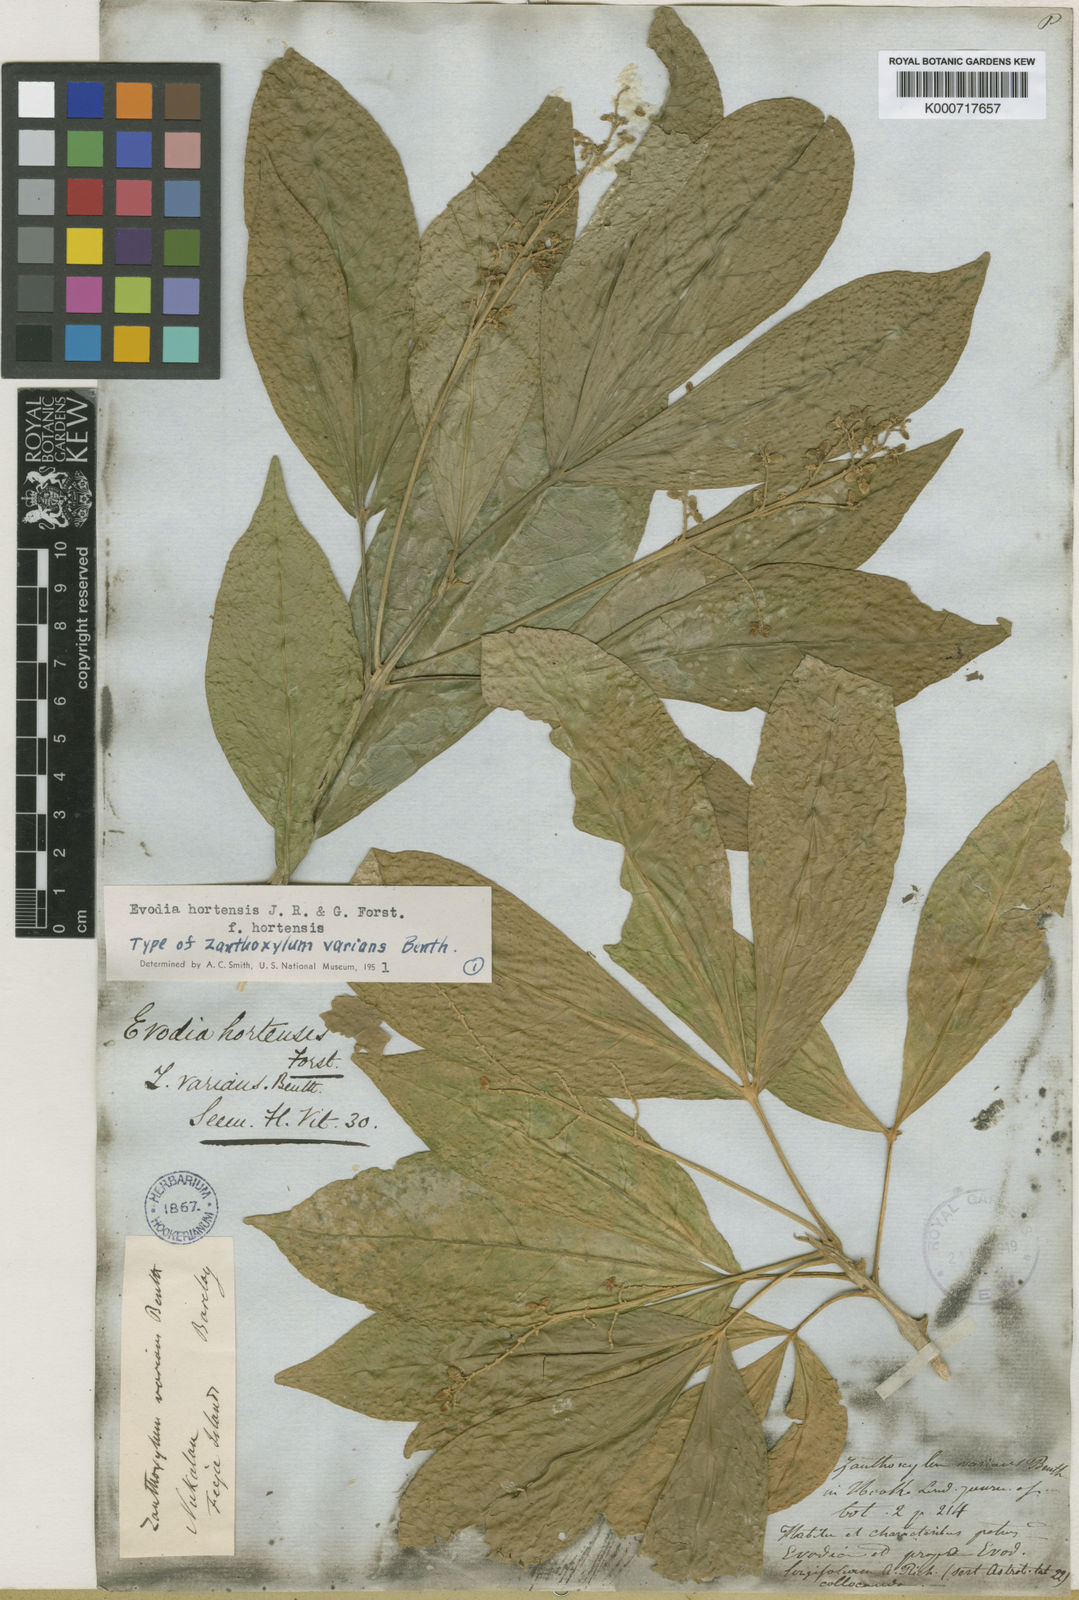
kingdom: Plantae
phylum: Tracheophyta
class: Magnoliopsida
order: Sapindales
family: Rutaceae
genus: Euodia
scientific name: Euodia hortensis
